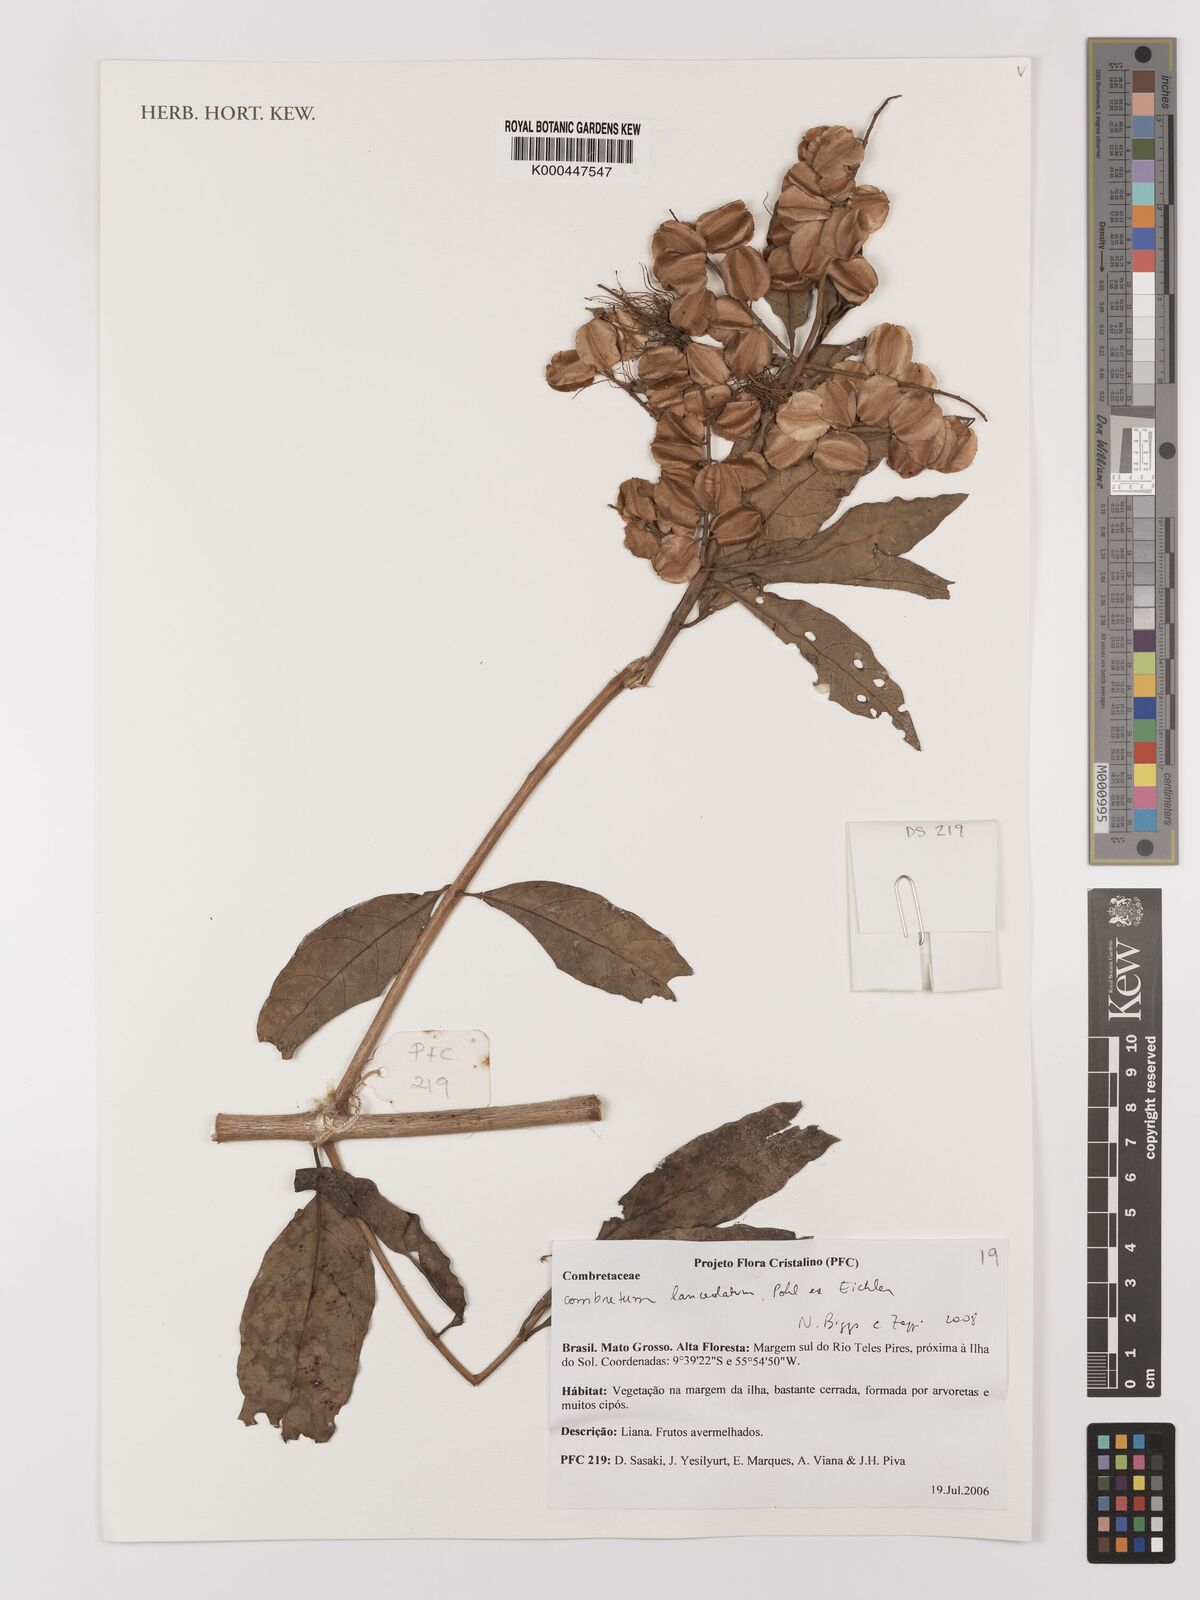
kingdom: Plantae
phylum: Tracheophyta
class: Magnoliopsida
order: Myrtales
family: Combretaceae
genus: Combretum
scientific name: Combretum lanceolatum
